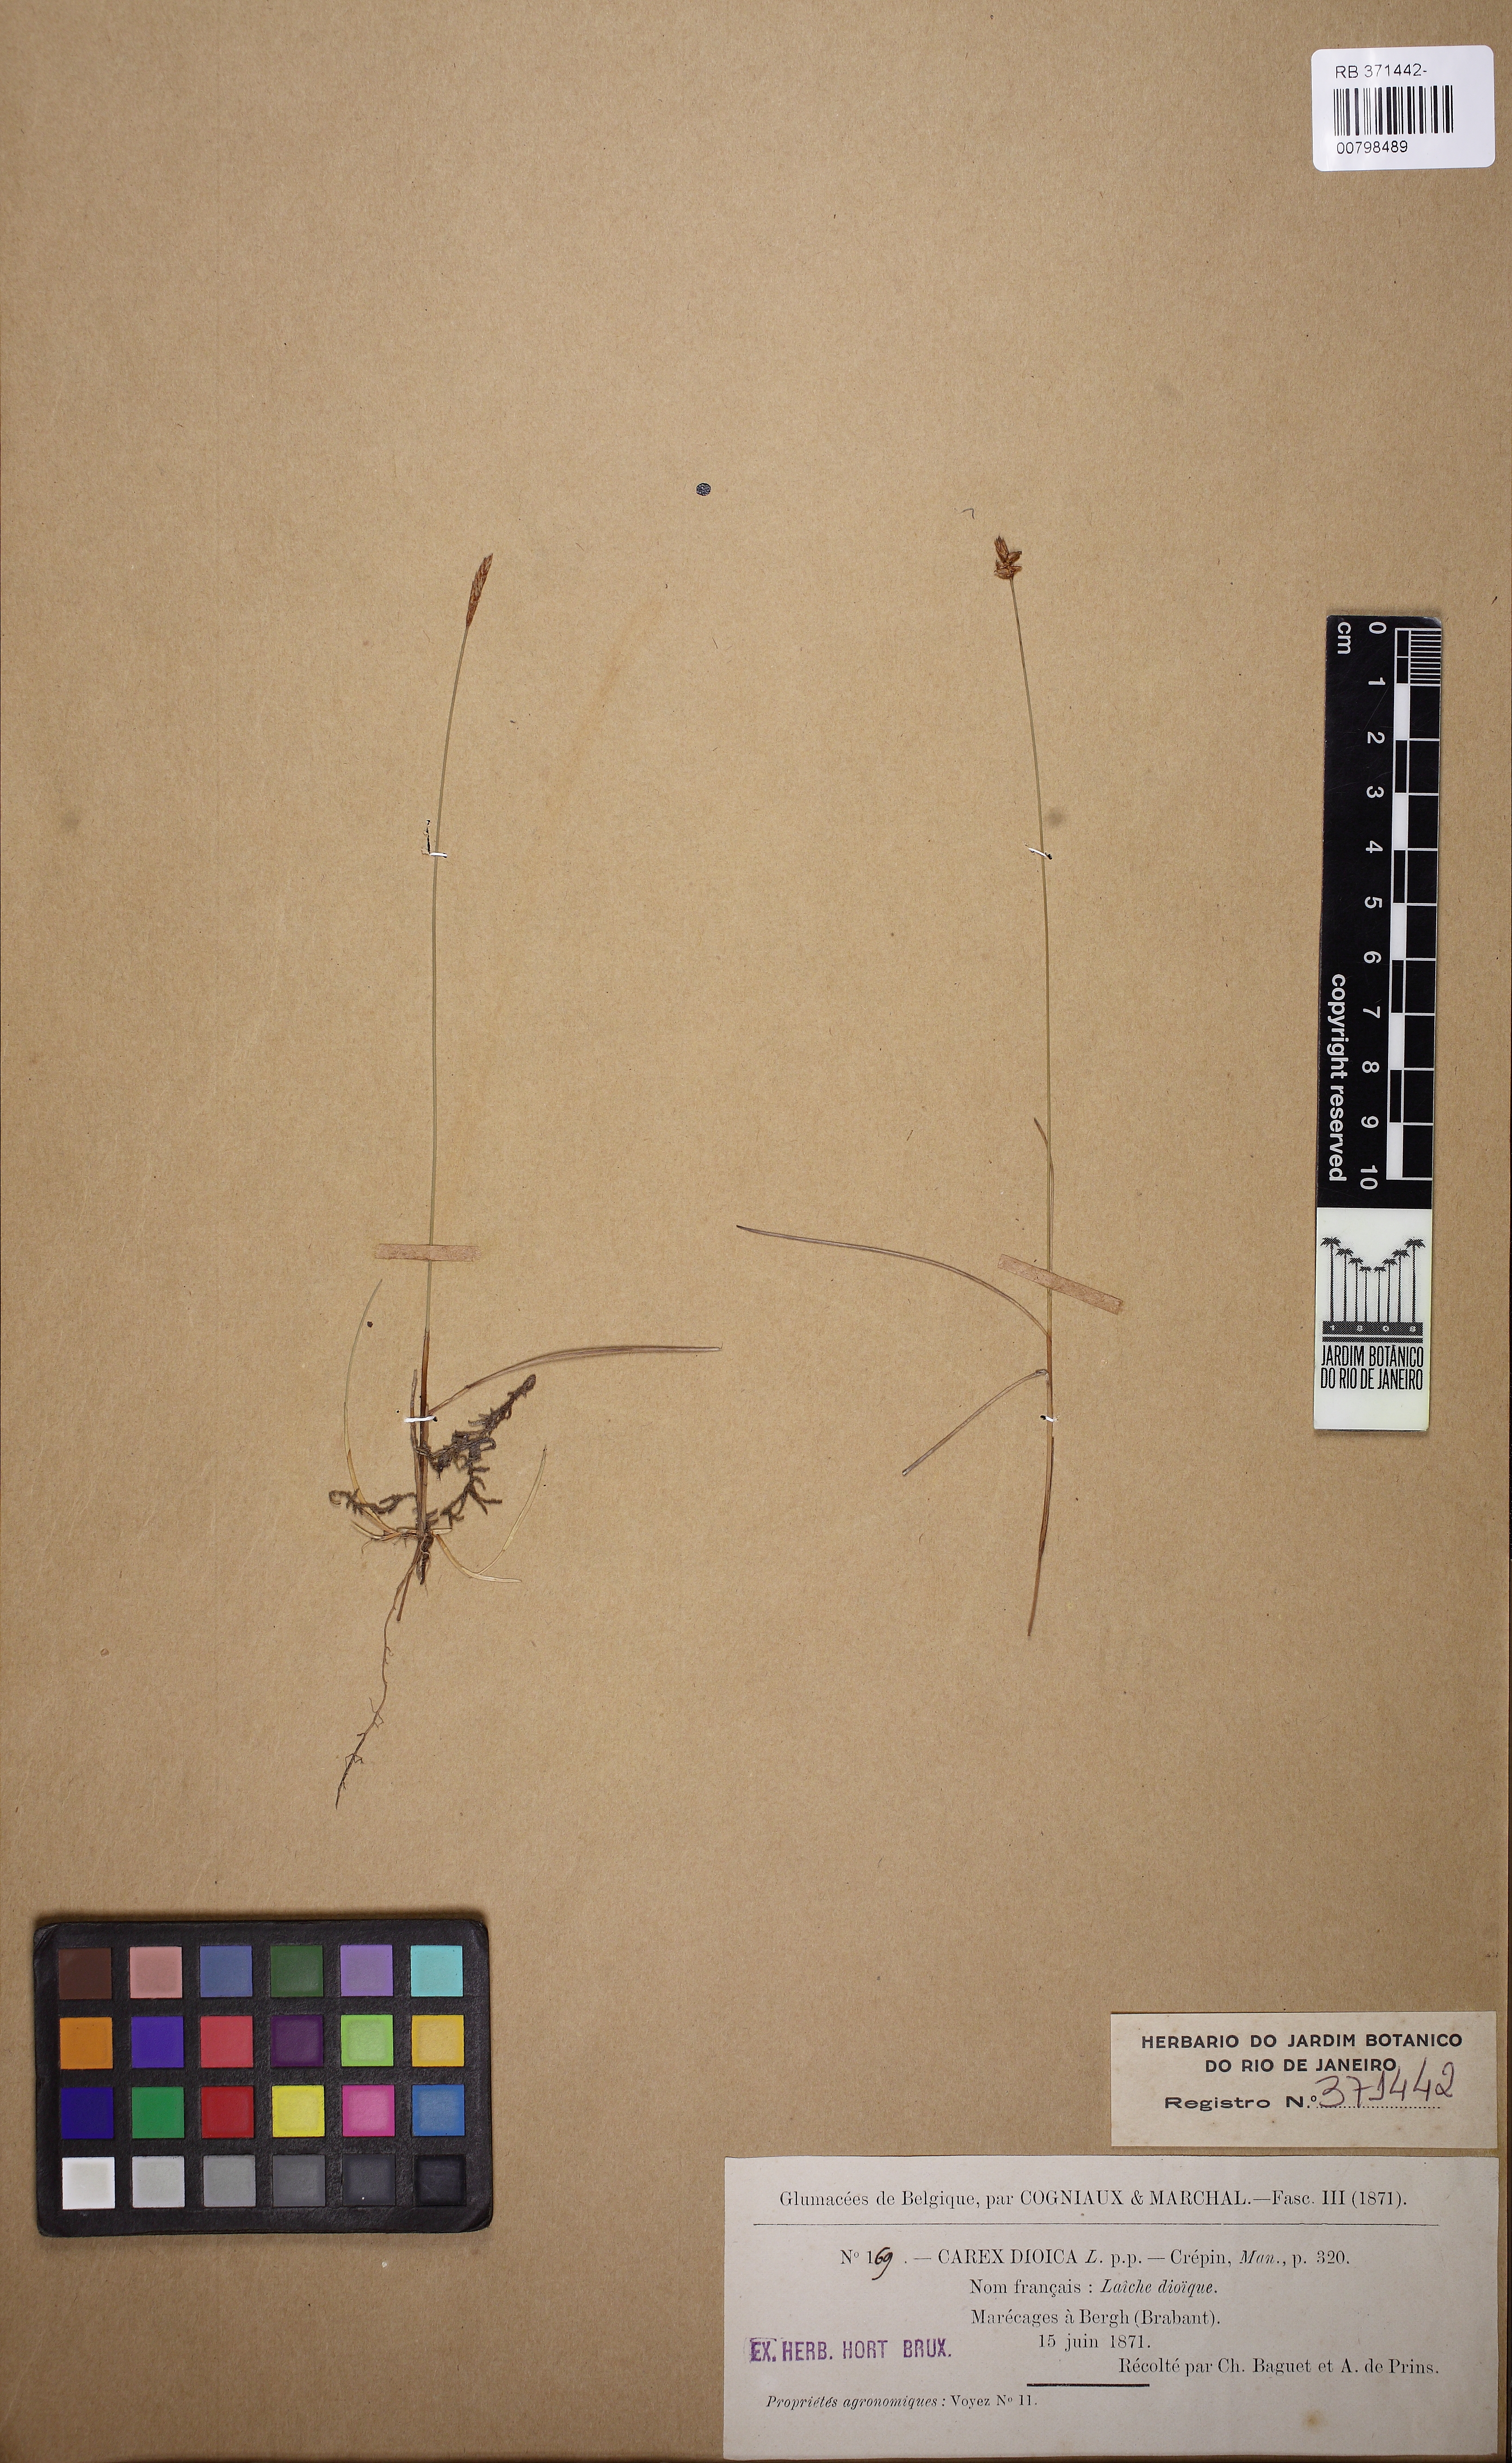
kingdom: Plantae
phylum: Tracheophyta
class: Liliopsida
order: Poales
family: Cyperaceae
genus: Carex
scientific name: Carex dioica
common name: Dioecious sedge
